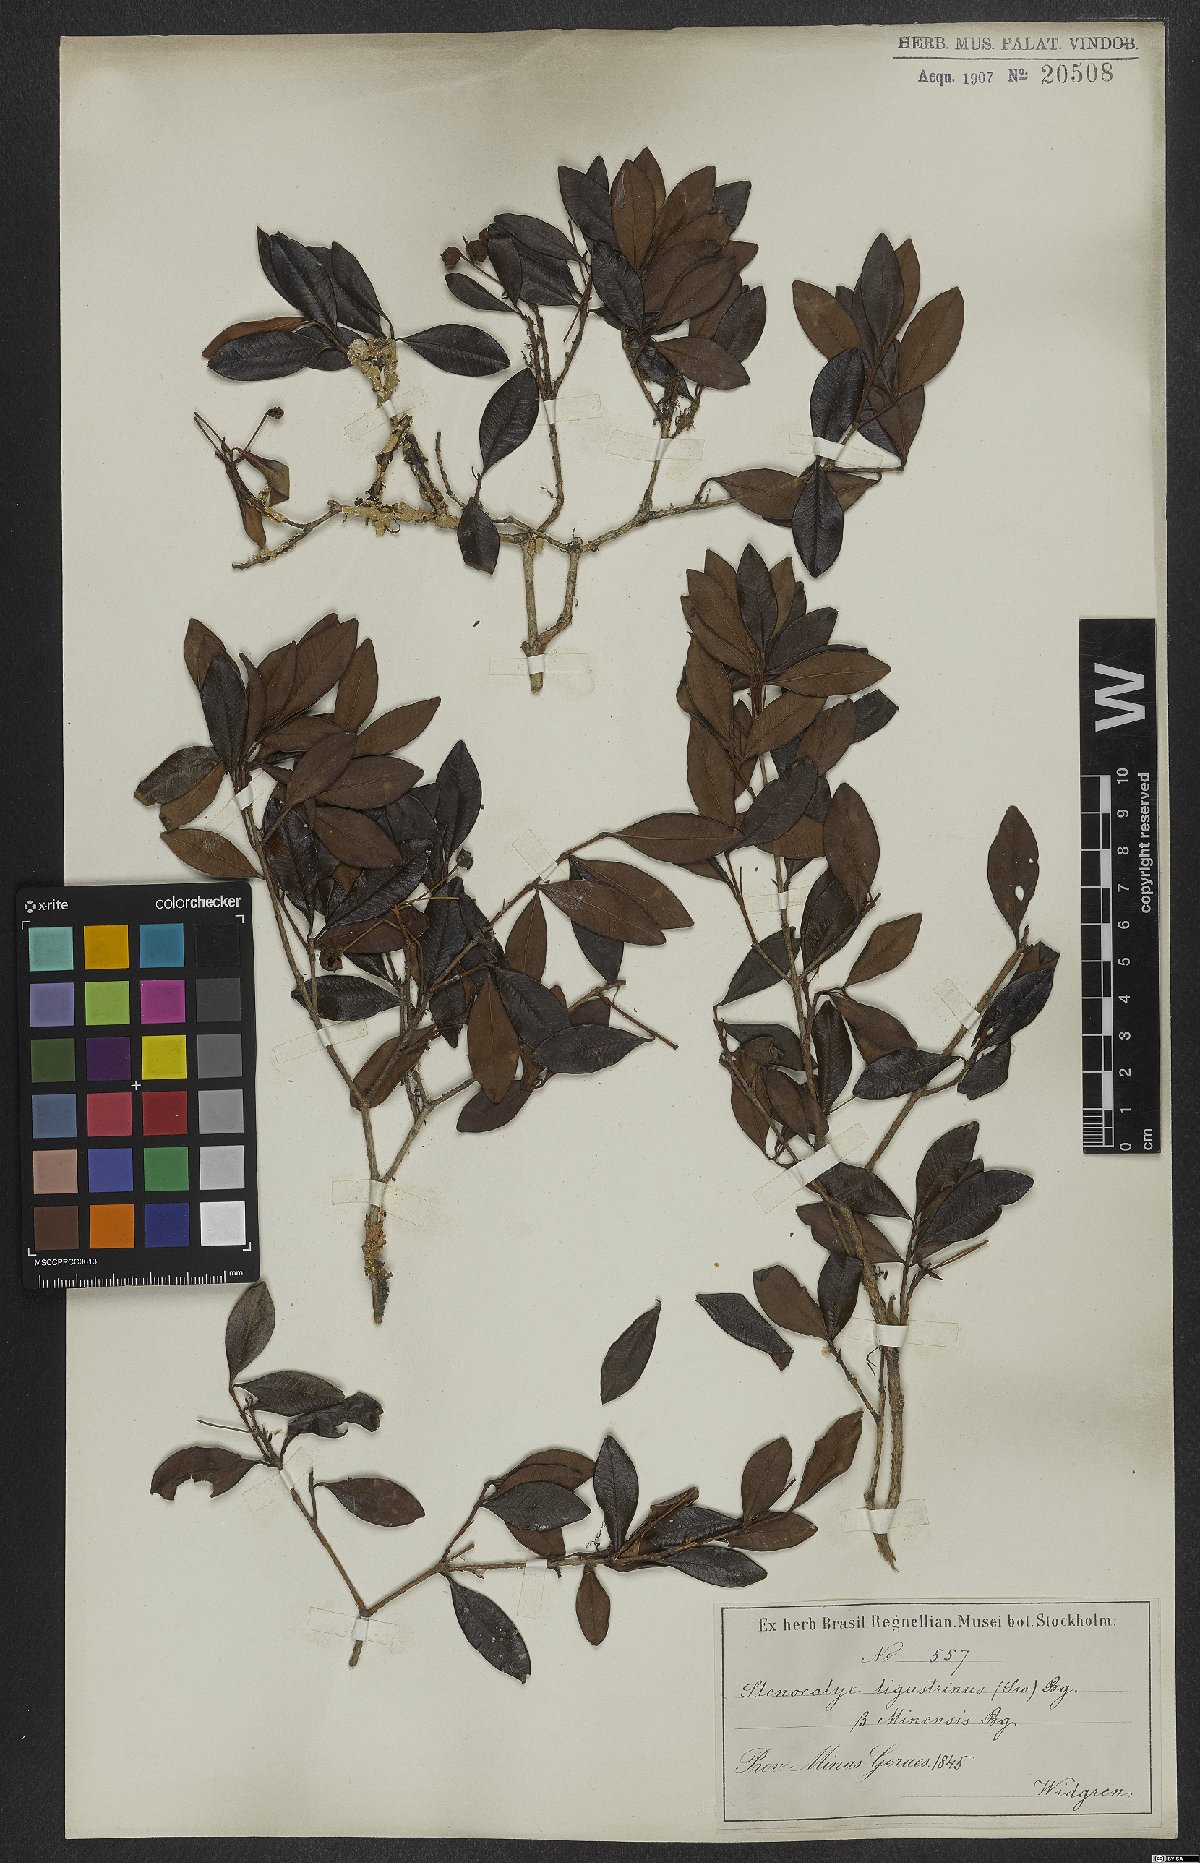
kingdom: Plantae
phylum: Tracheophyta
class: Magnoliopsida
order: Myrtales
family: Myrtaceae
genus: Eugenia
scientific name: Eugenia ligustrina
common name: Privet stopper
